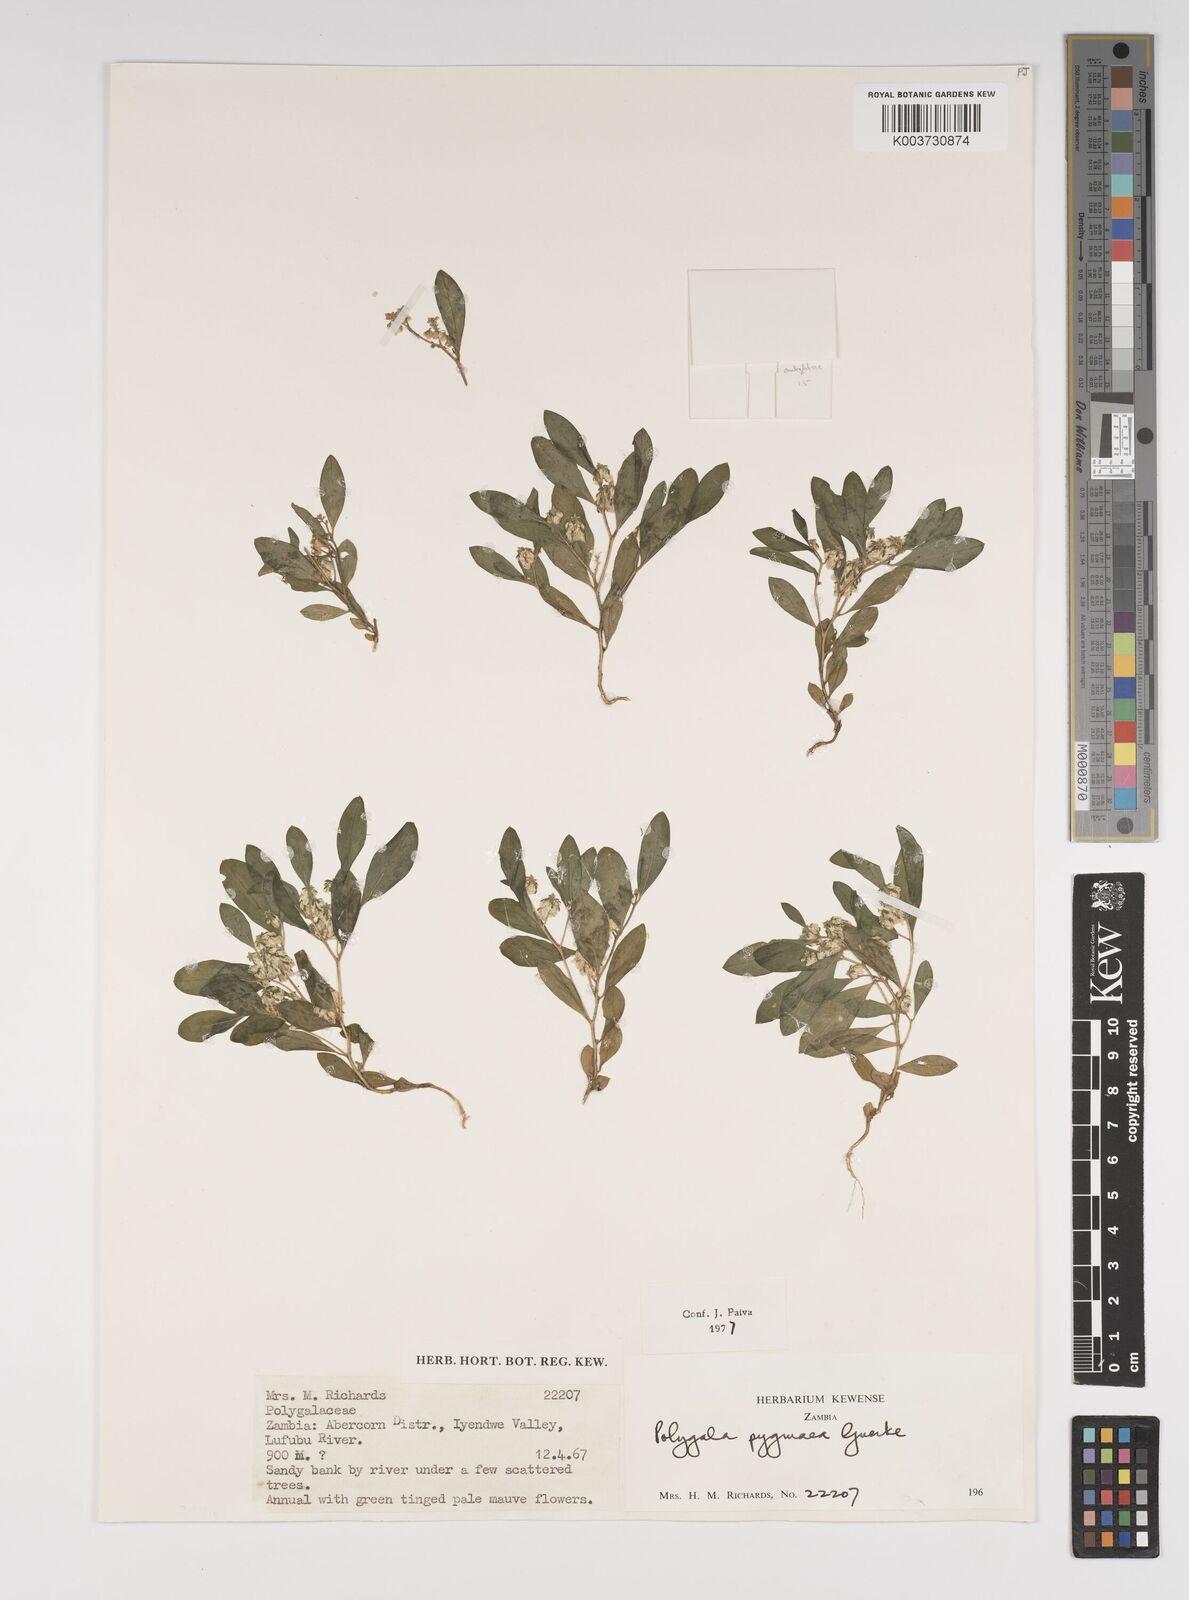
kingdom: Plantae
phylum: Tracheophyta
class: Magnoliopsida
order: Fabales
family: Polygalaceae
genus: Polygala
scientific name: Polygala welwitschii
